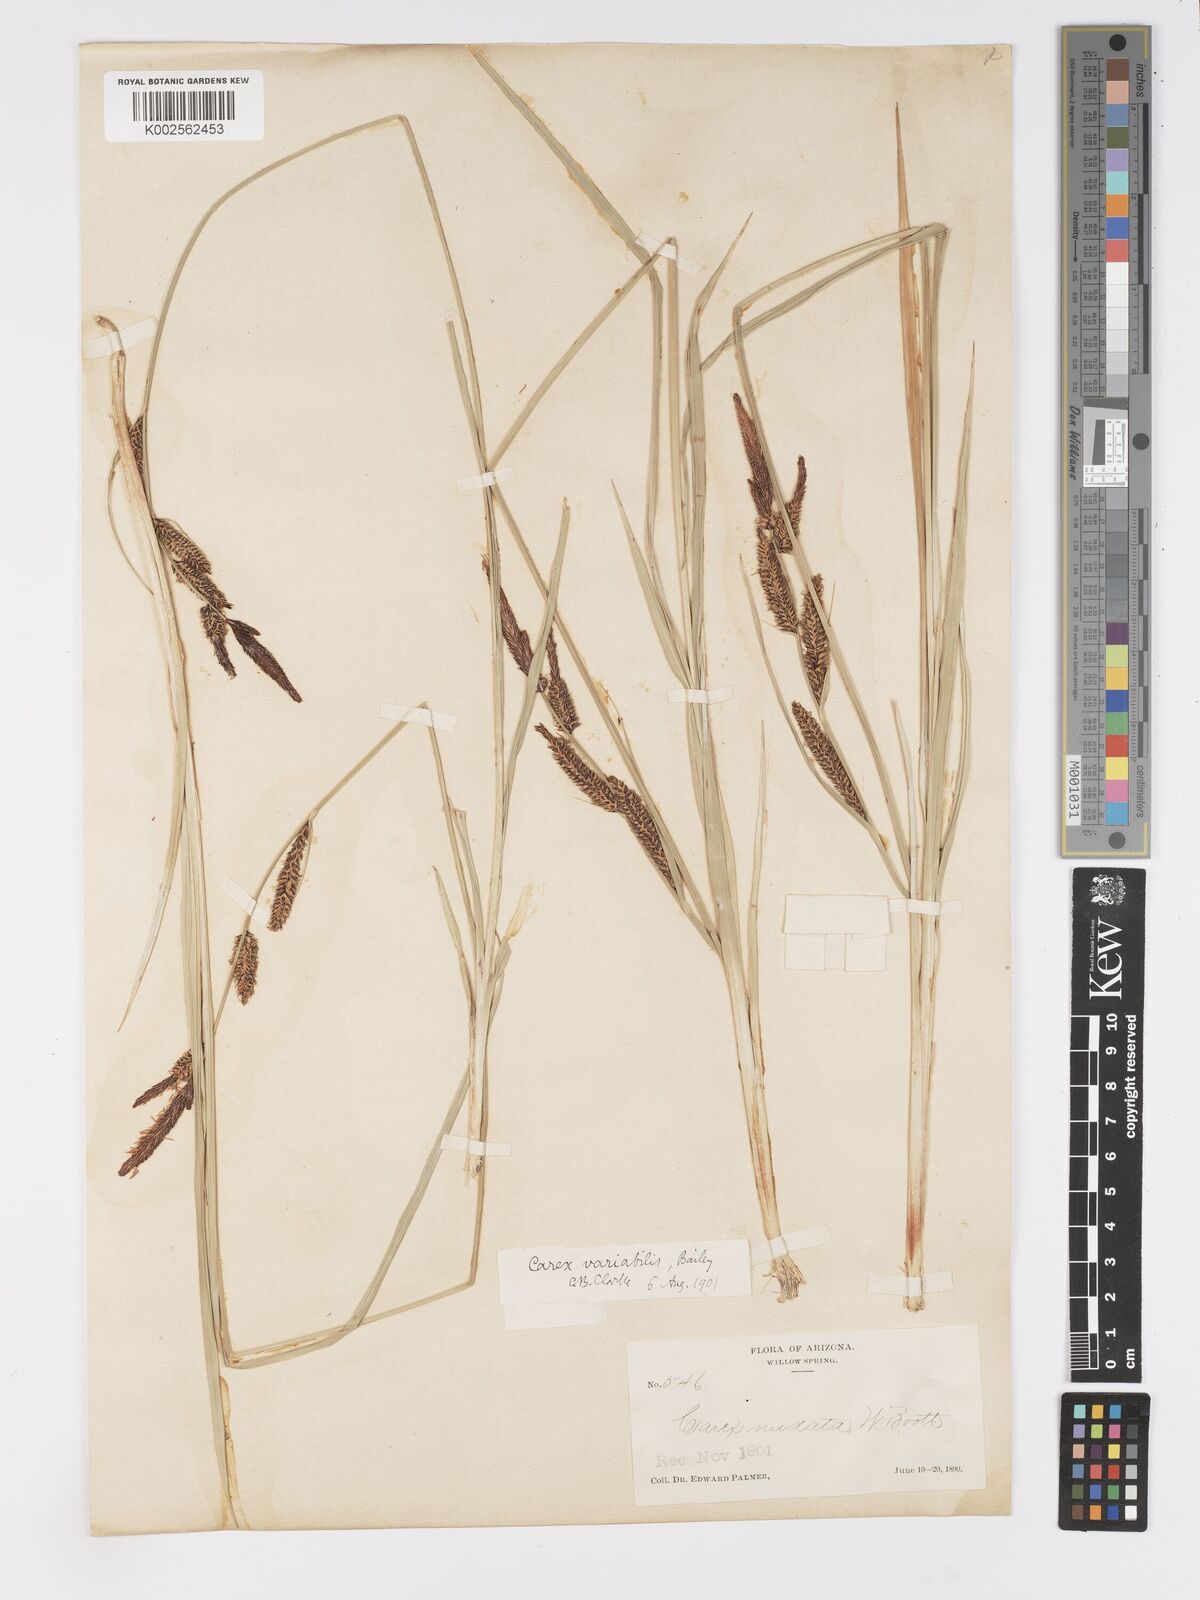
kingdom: Plantae
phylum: Tracheophyta
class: Liliopsida
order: Poales
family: Cyperaceae
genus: Carex
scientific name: Carex
